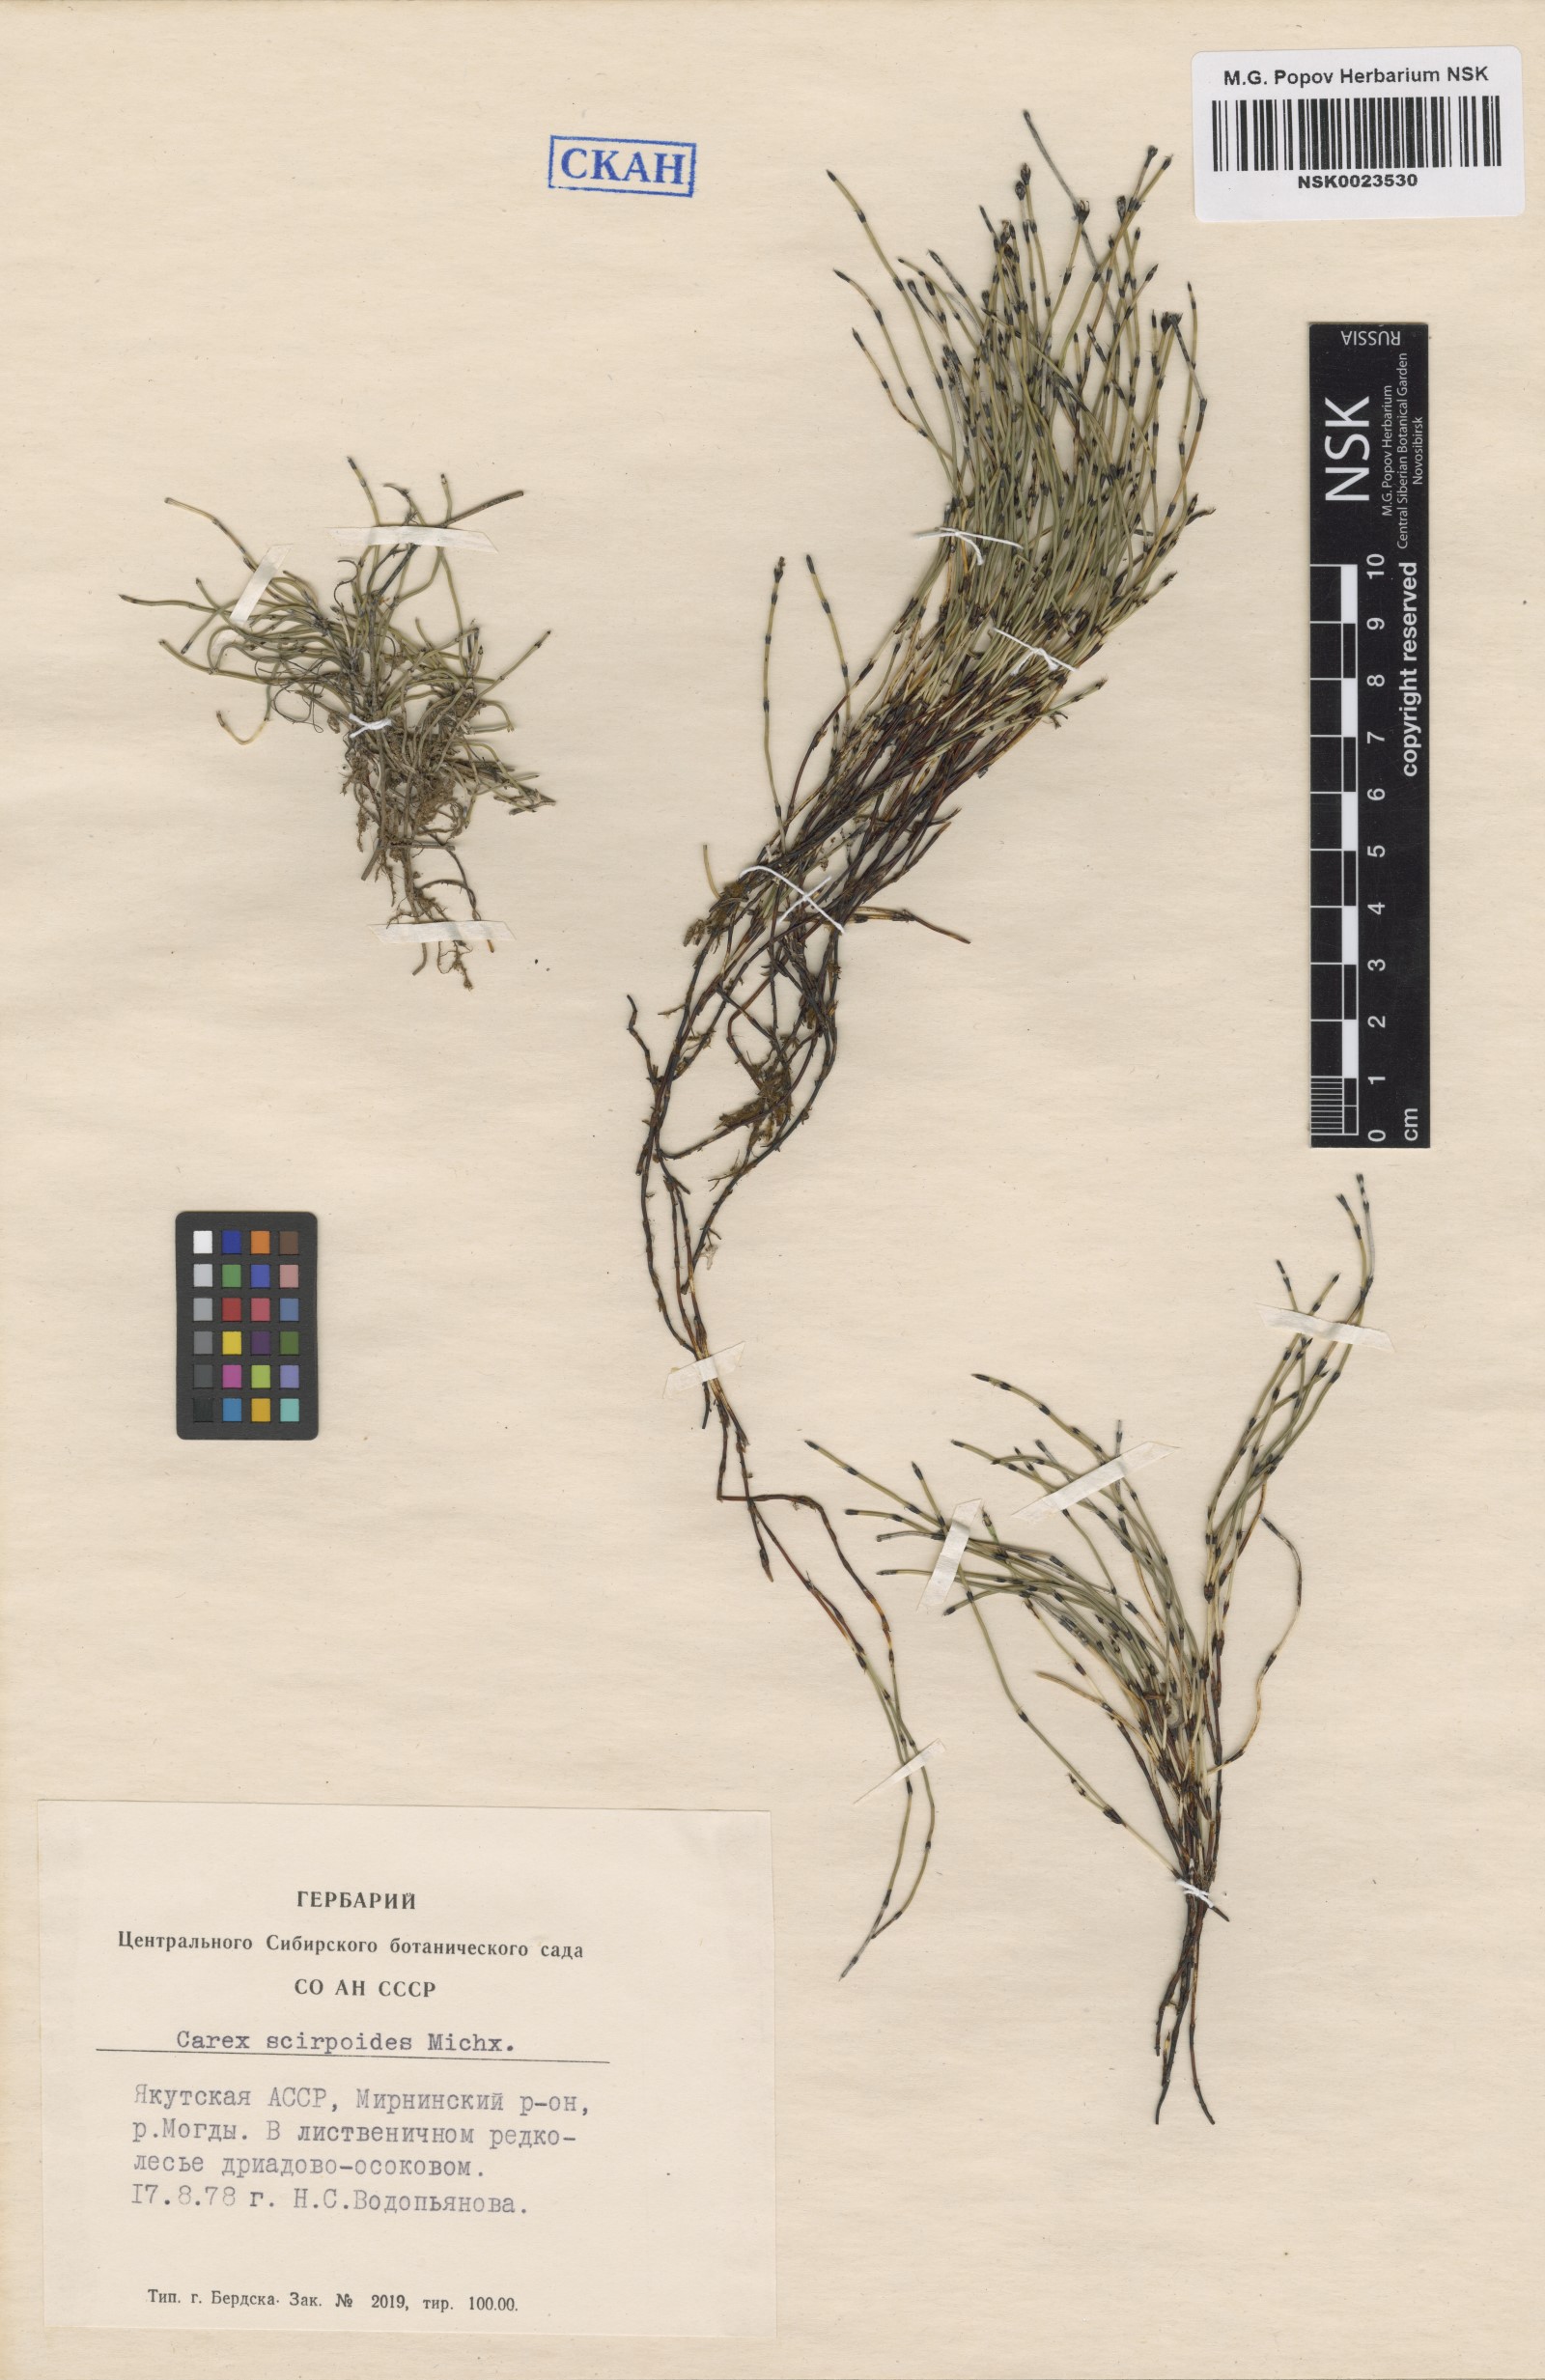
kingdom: Plantae
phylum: Tracheophyta
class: Polypodiopsida
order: Equisetales
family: Equisetaceae
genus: Equisetum
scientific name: Equisetum scirpoides
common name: Delicate horsetail
